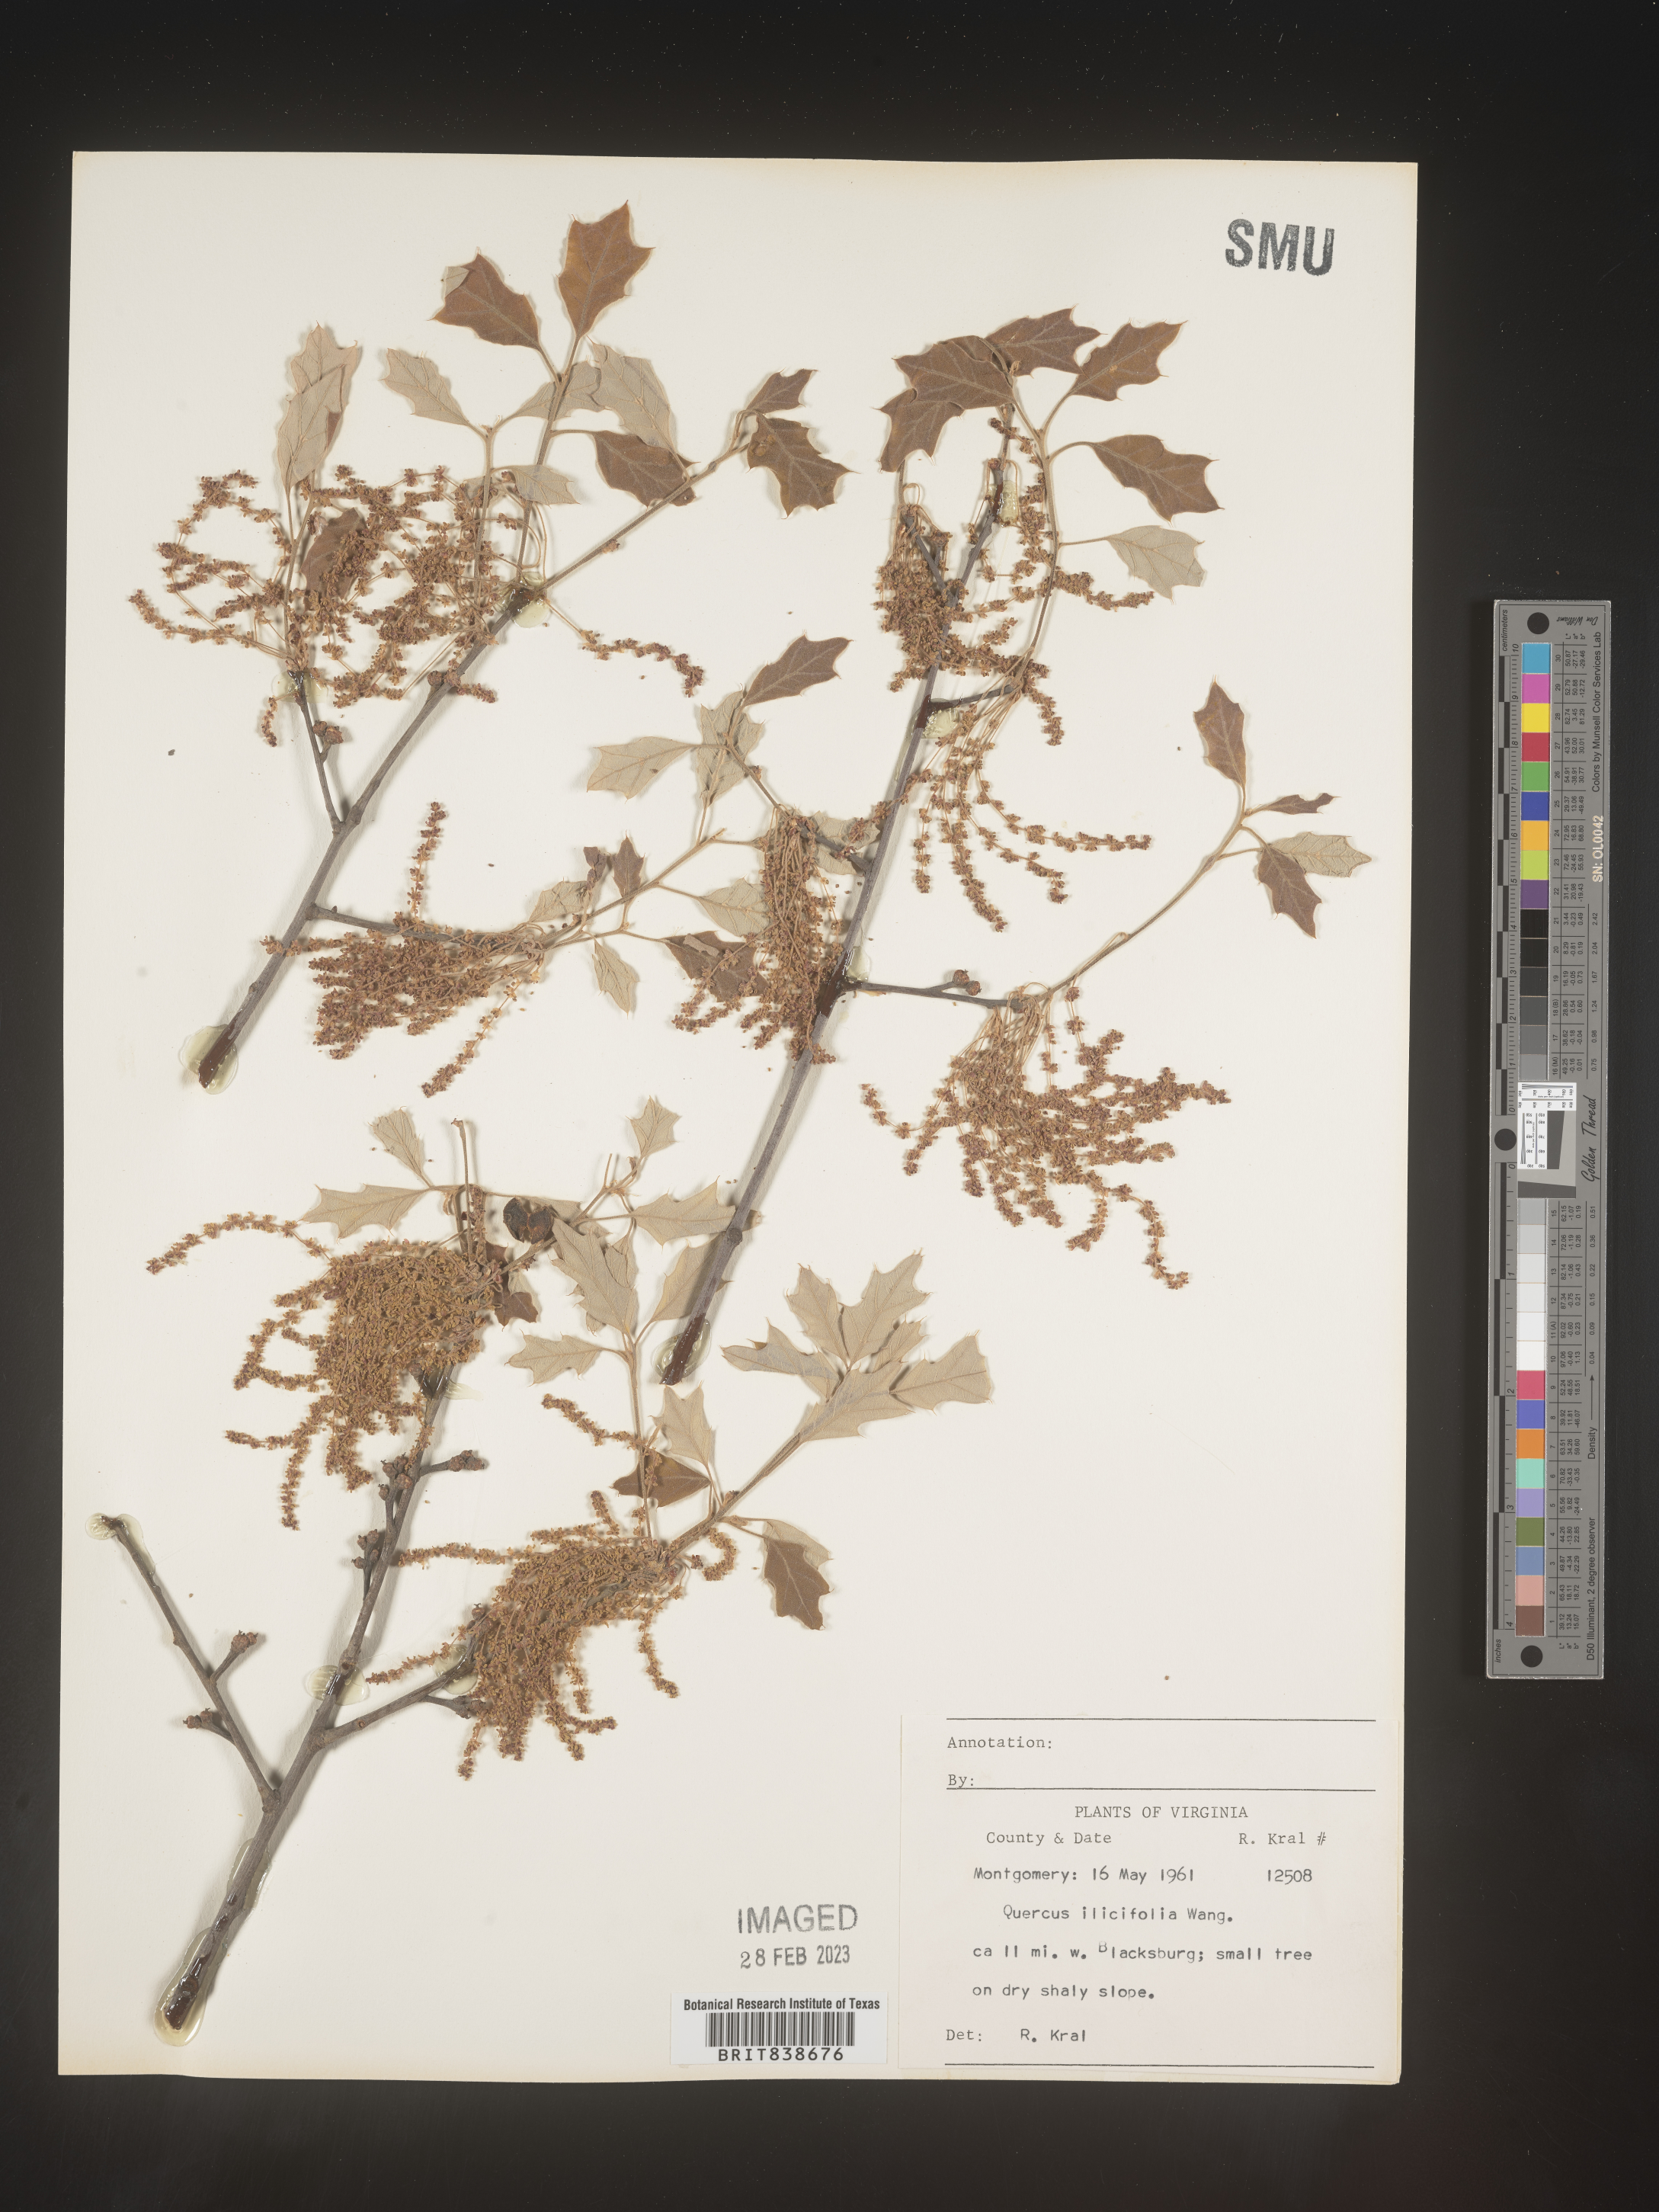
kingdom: Plantae
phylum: Tracheophyta
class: Magnoliopsida
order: Fagales
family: Fagaceae
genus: Quercus
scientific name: Quercus ilicifolia
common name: Bear oak
